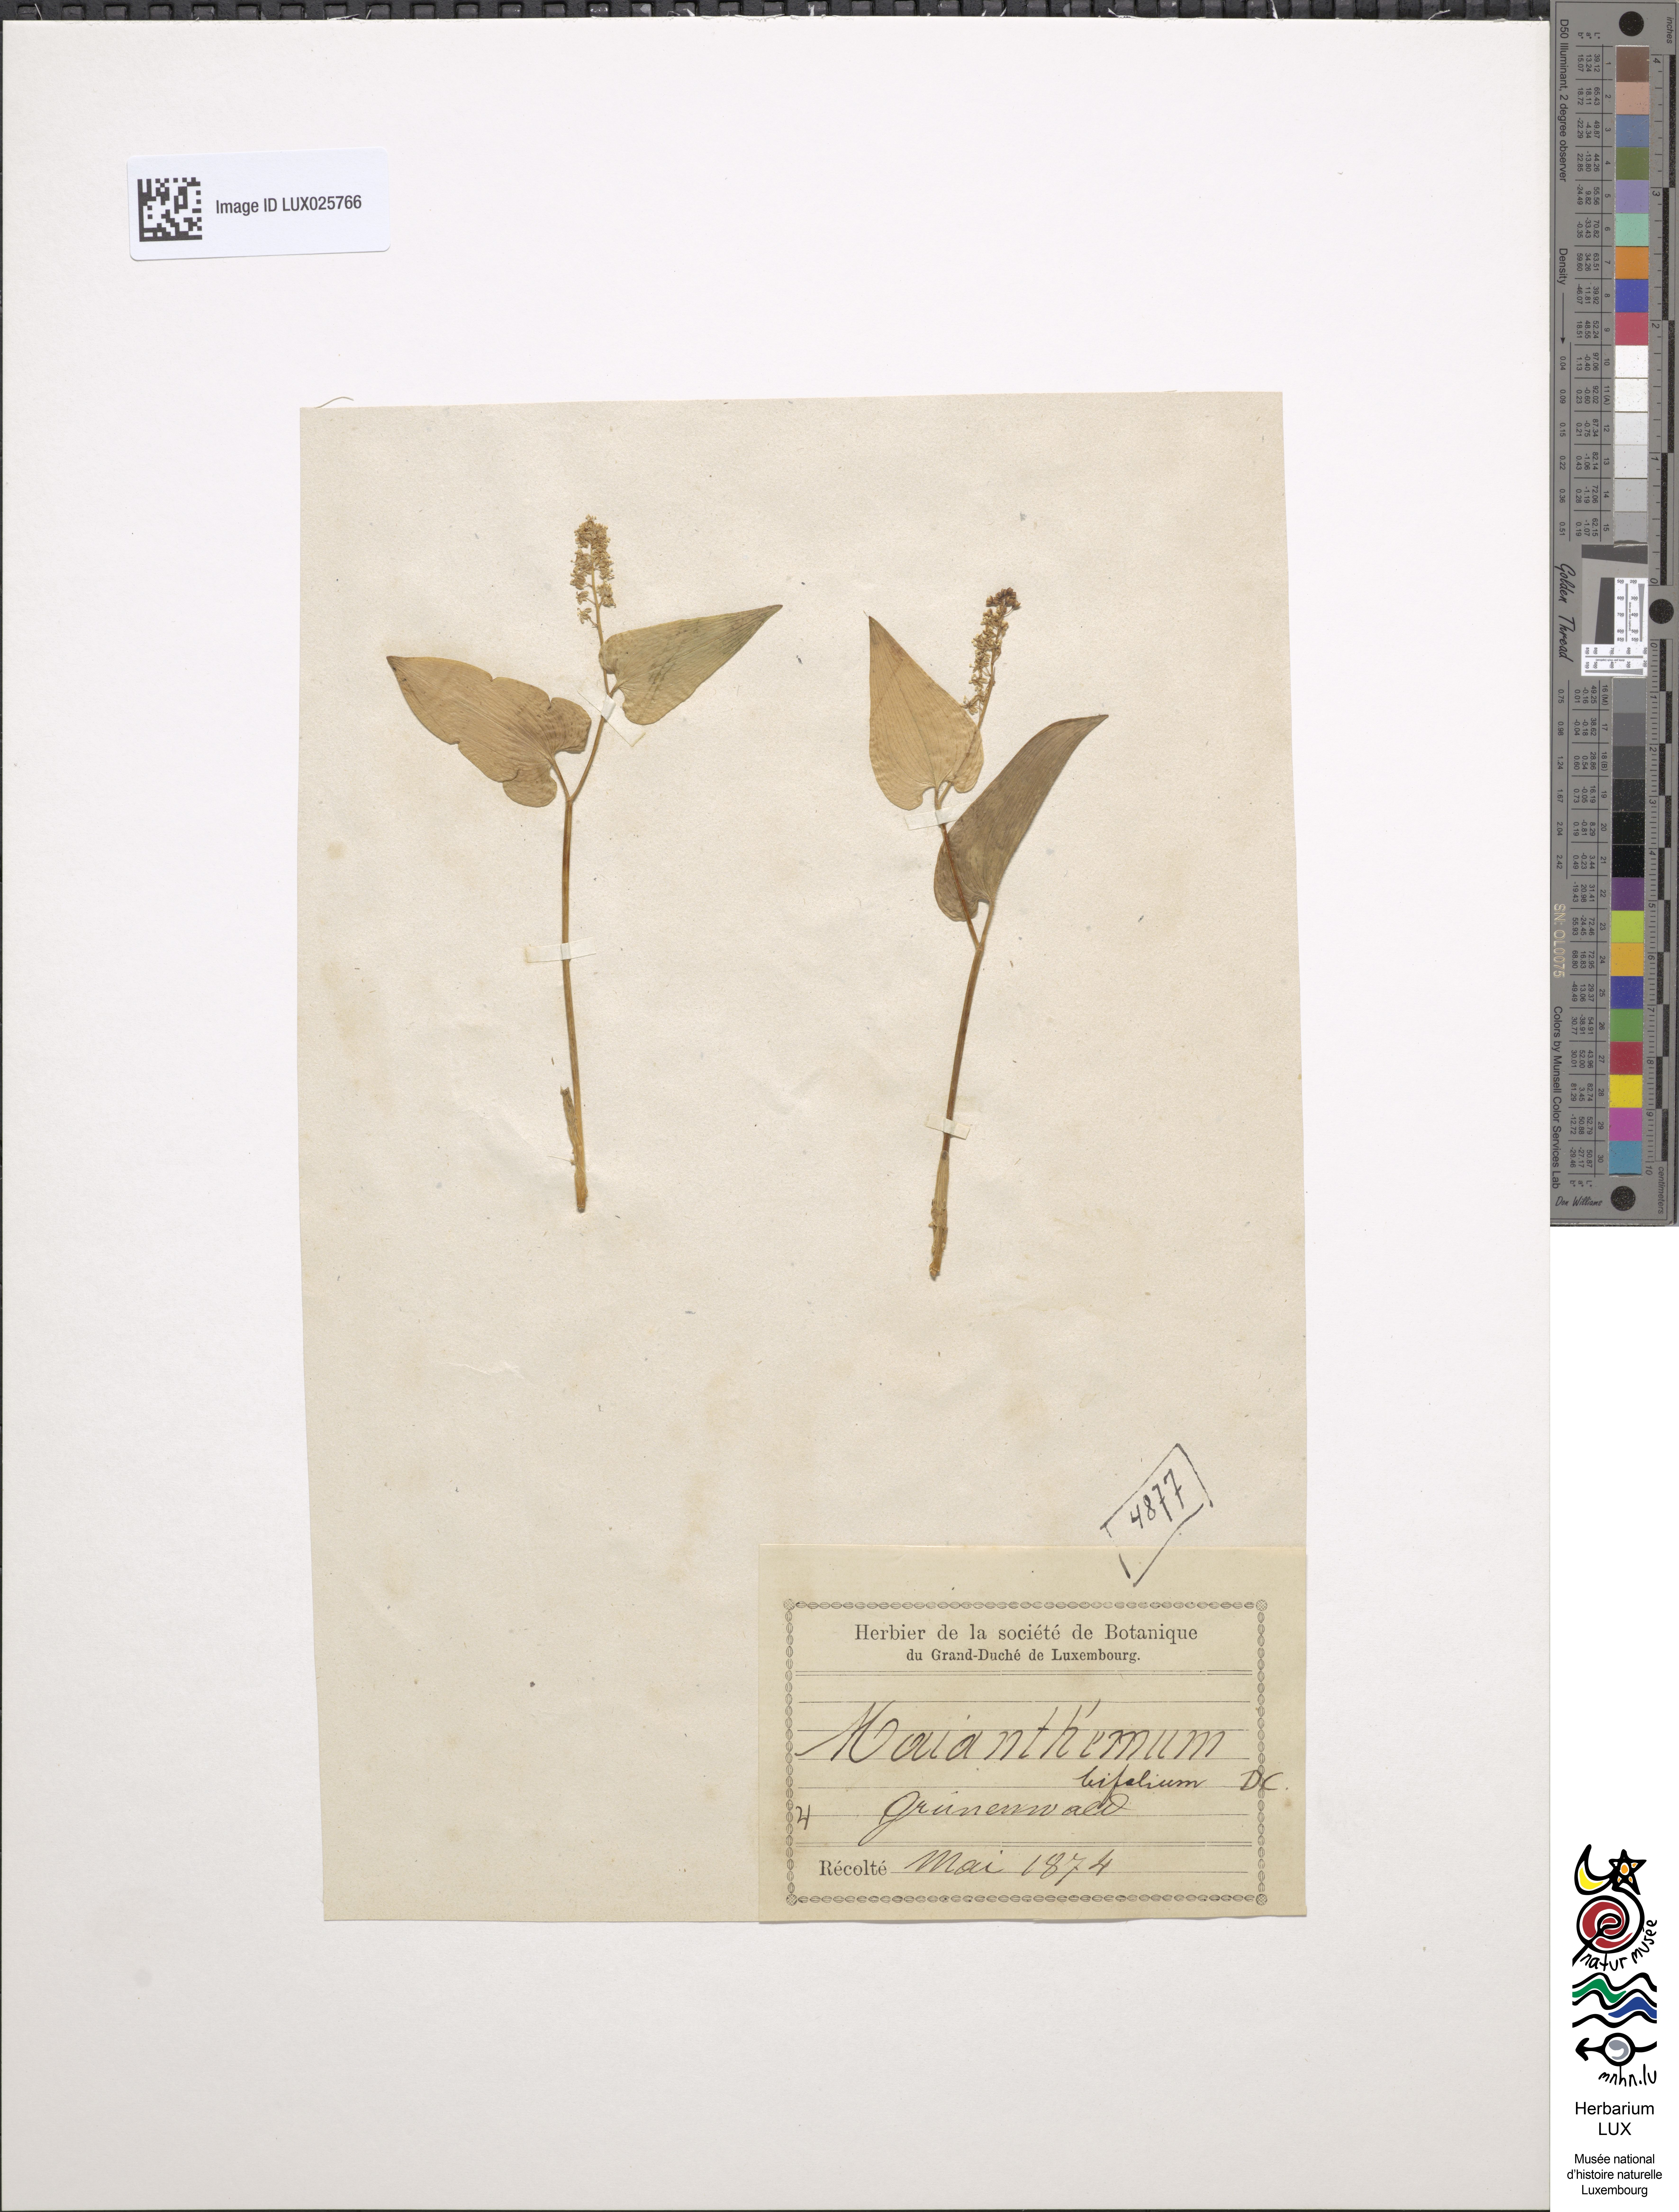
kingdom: Plantae
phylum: Tracheophyta
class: Liliopsida
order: Asparagales
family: Asparagaceae
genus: Maianthemum
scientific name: Maianthemum bifolium
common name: May lily
